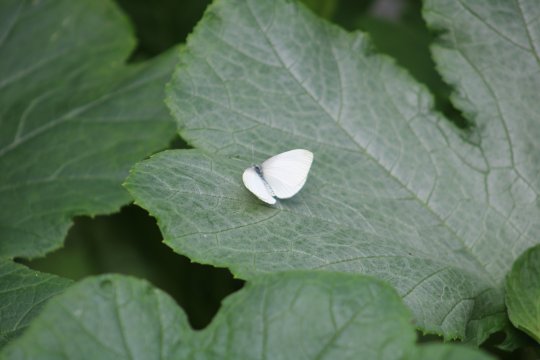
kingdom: Animalia
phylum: Arthropoda
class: Insecta
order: Lepidoptera
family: Pieridae
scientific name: Pieridae
